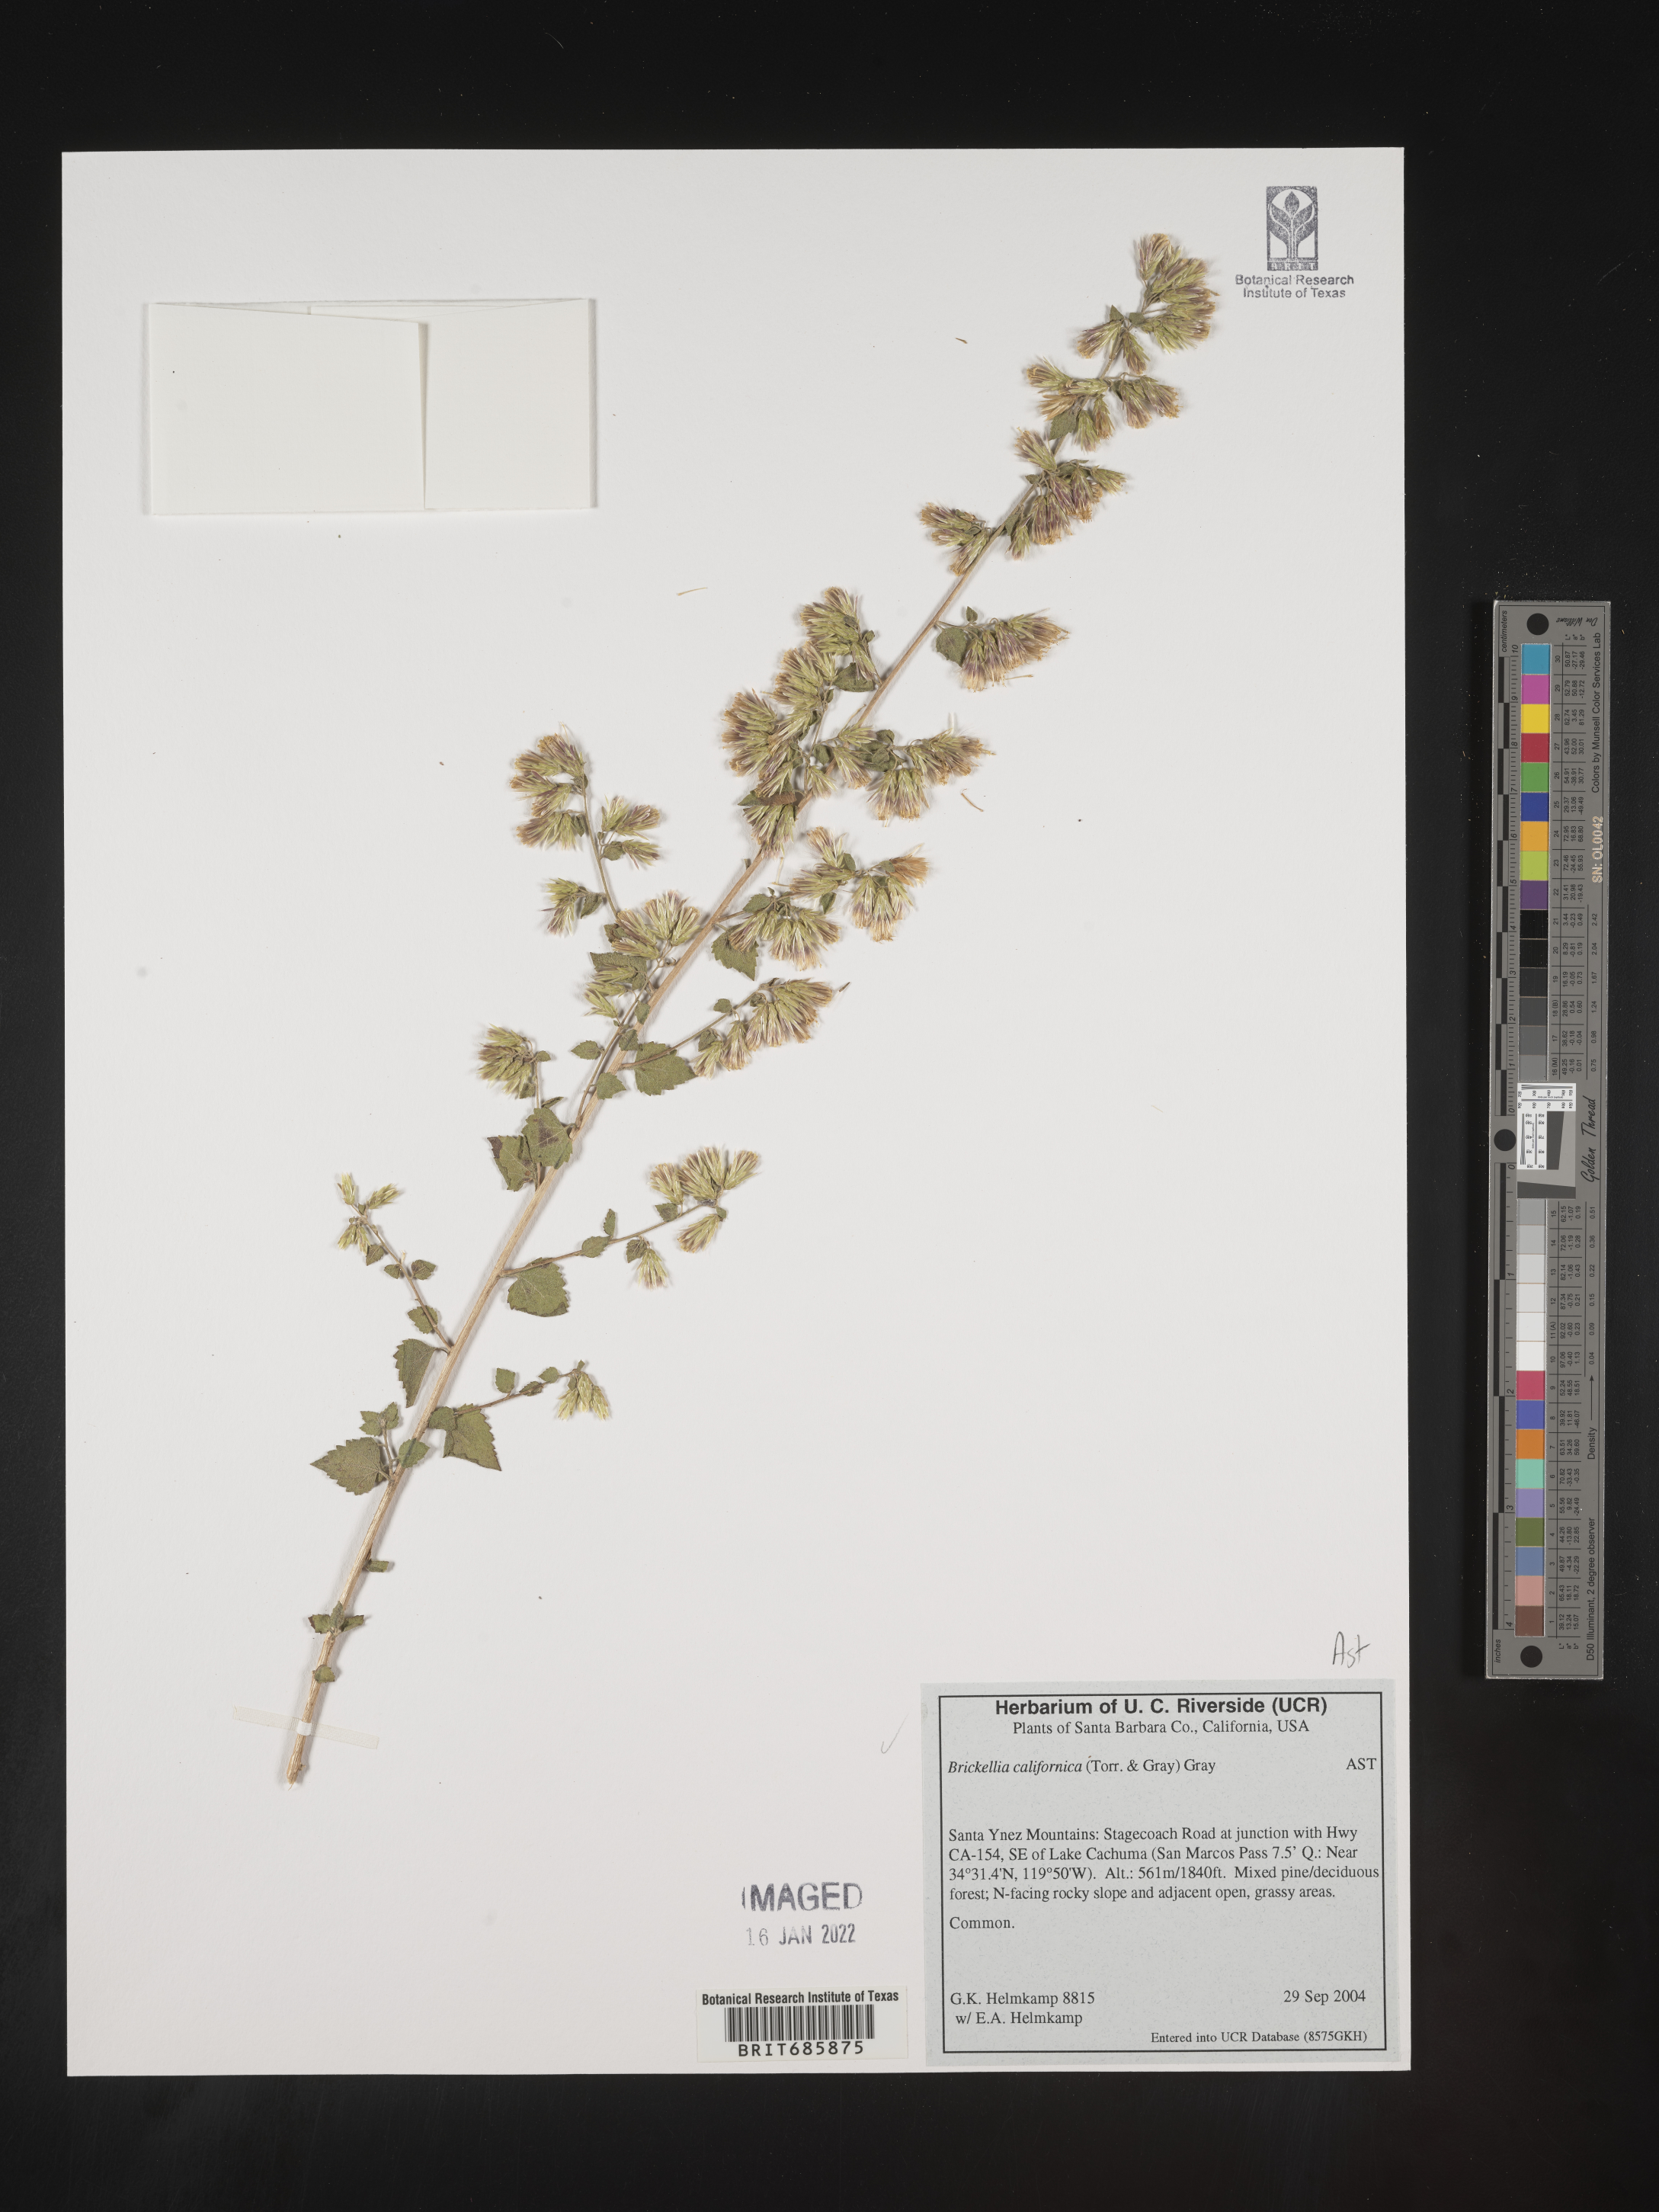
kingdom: Plantae
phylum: Tracheophyta
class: Magnoliopsida
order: Asterales
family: Asteraceae
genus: Brickellia
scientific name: Brickellia californica
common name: California brickellbush
